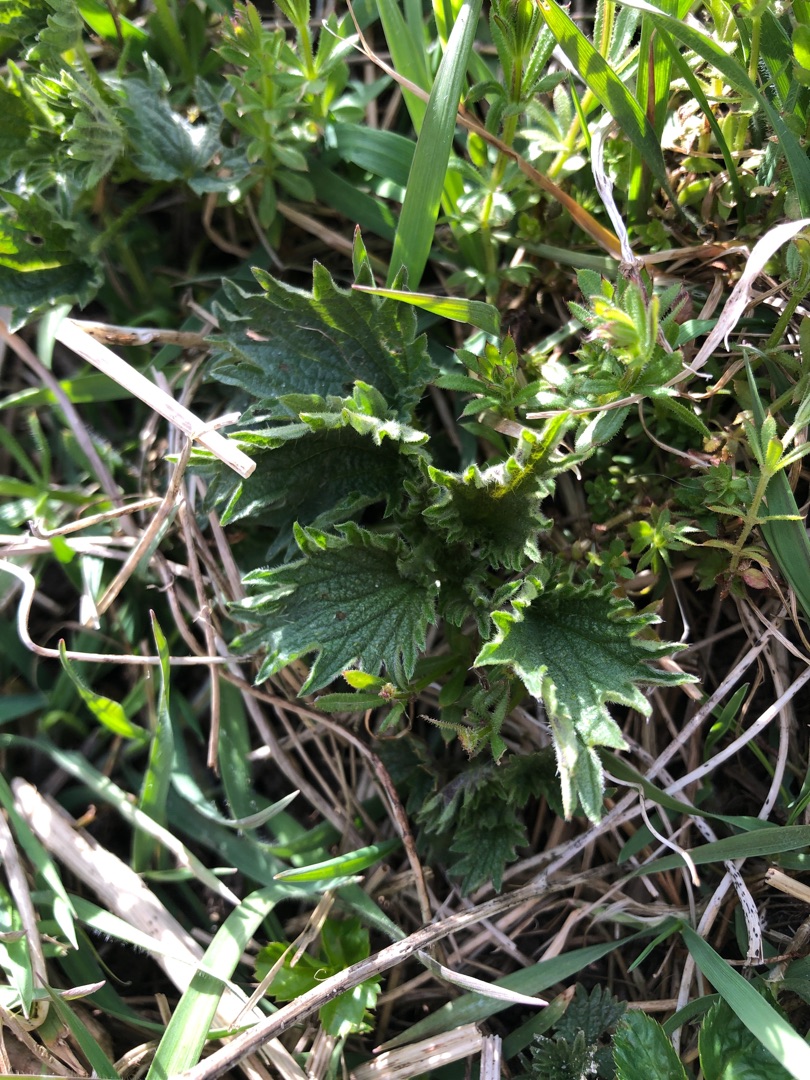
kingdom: Plantae
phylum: Tracheophyta
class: Magnoliopsida
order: Rosales
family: Urticaceae
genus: Urtica
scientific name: Urtica dioica
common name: Stor nælde
